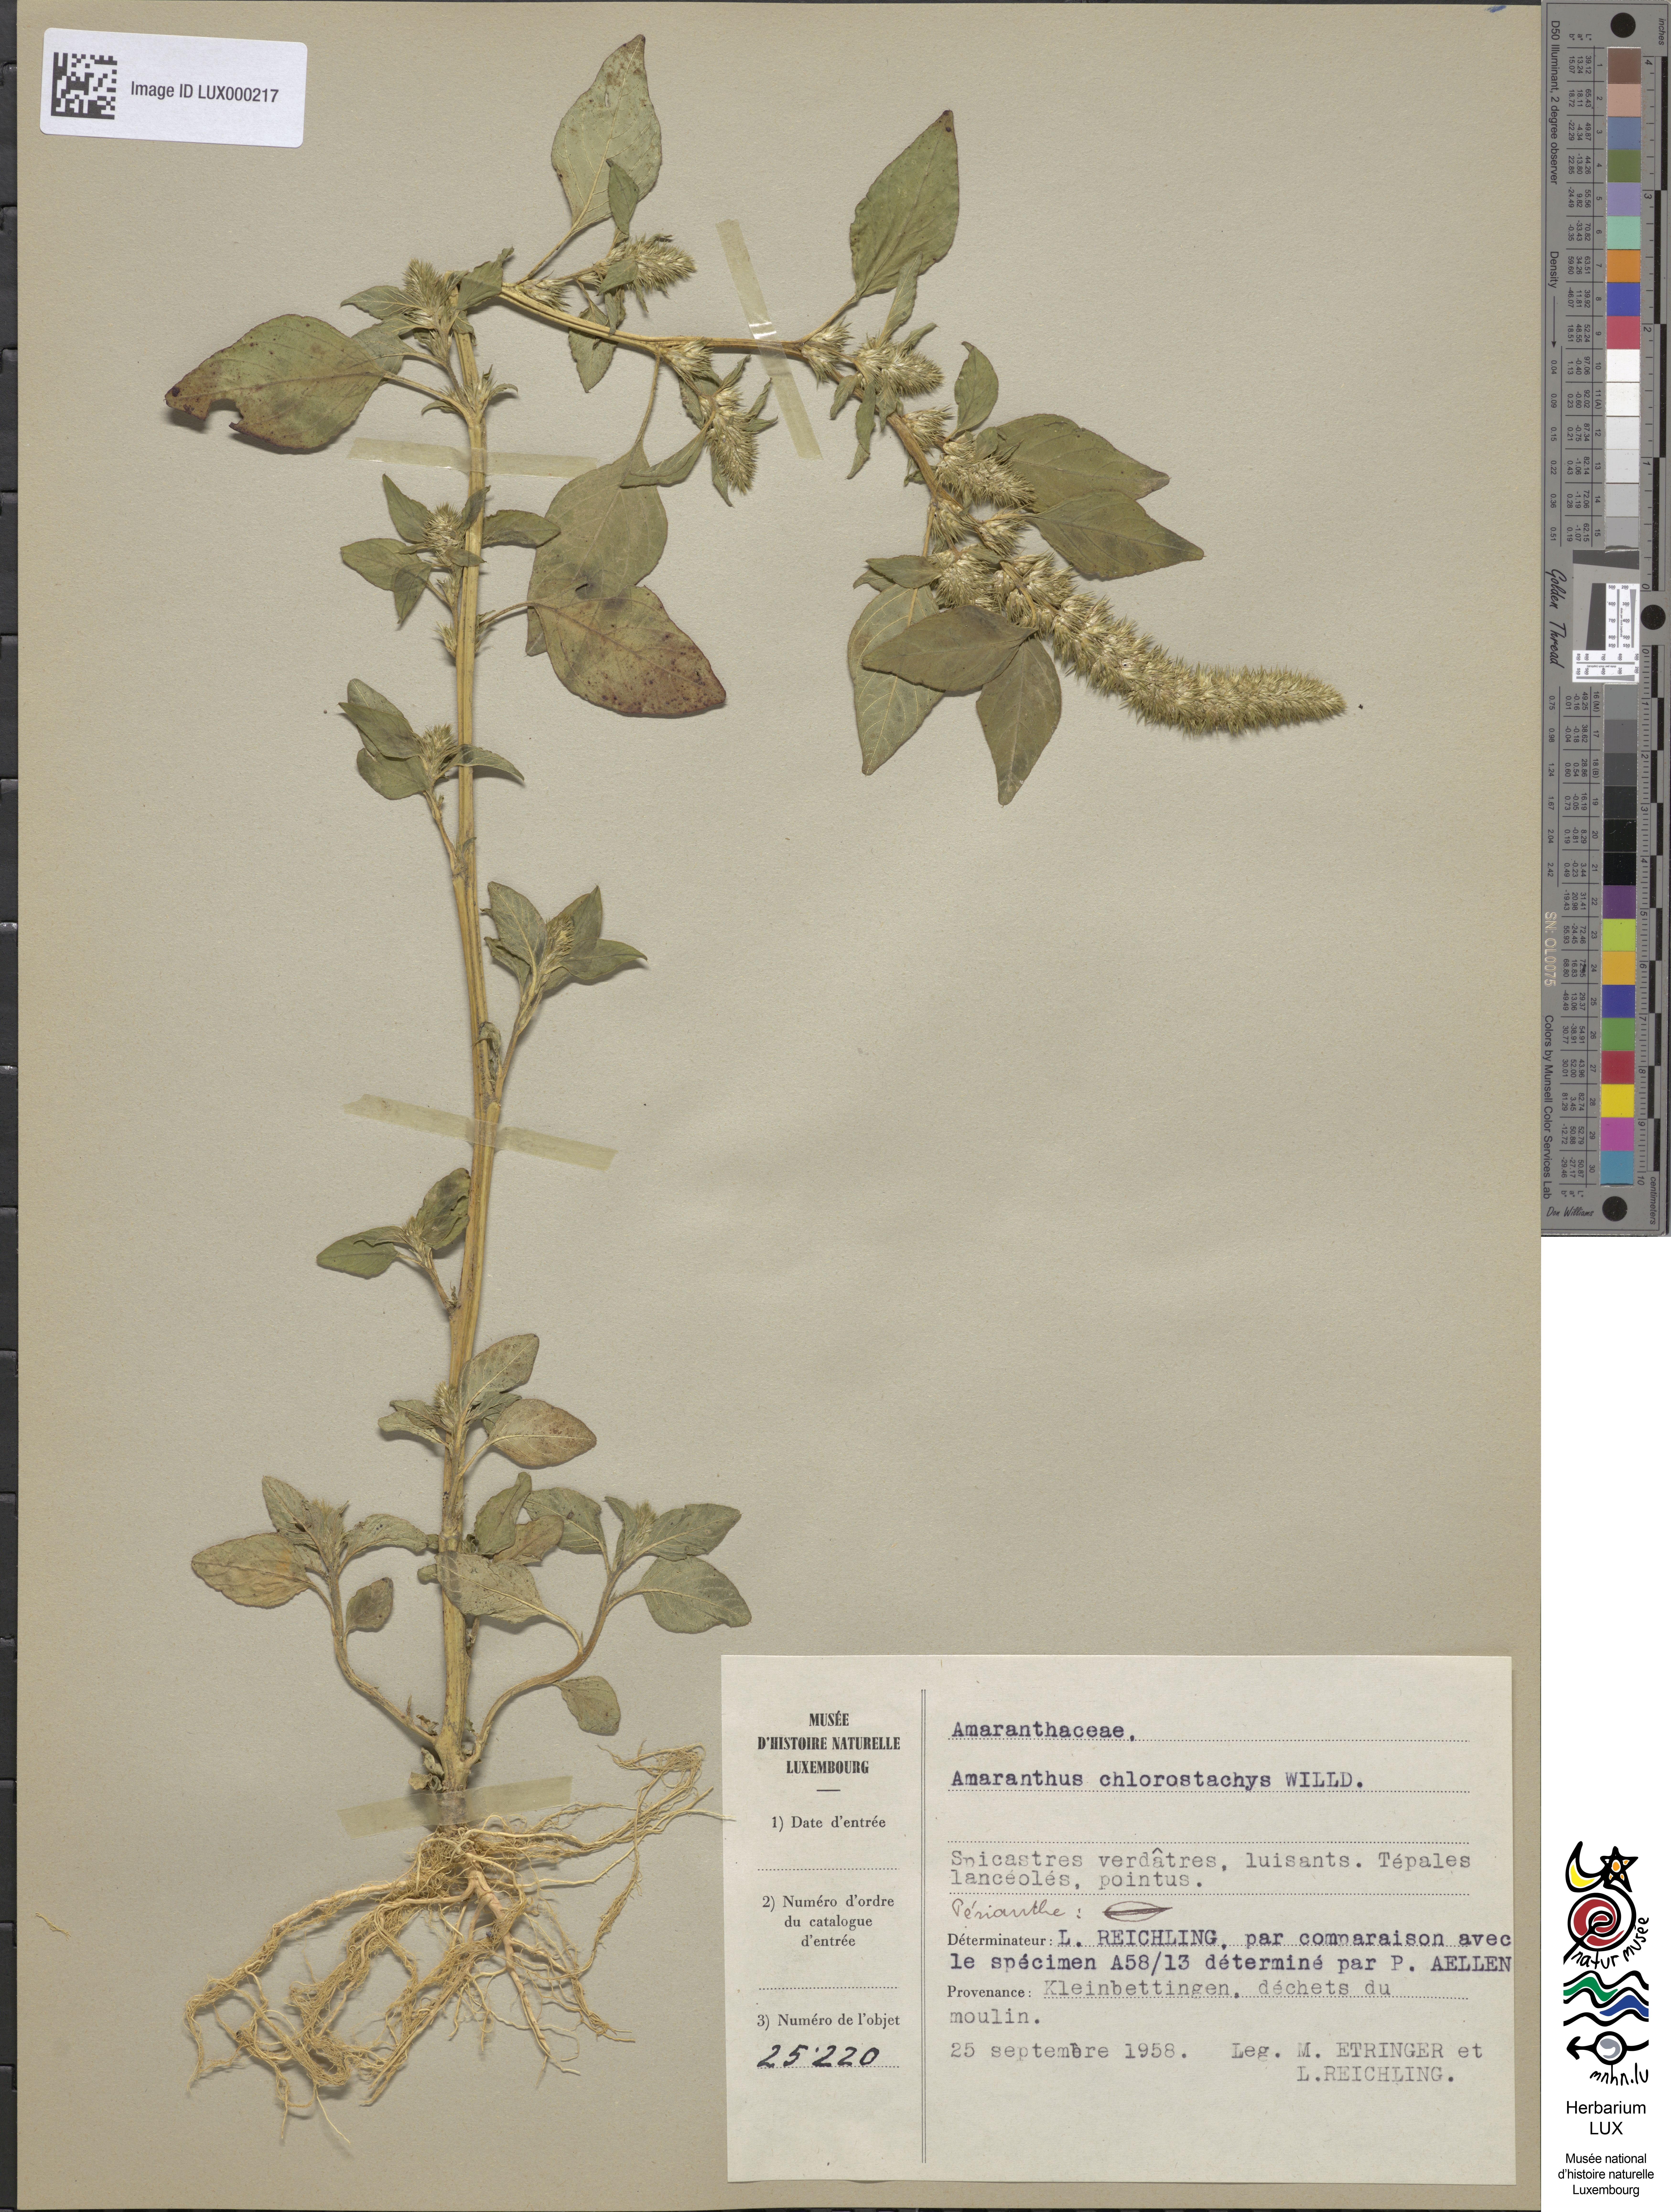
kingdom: Plantae
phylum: Tracheophyta
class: Magnoliopsida
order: Caryophyllales
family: Amaranthaceae
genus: Amaranthus
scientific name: Amaranthus
